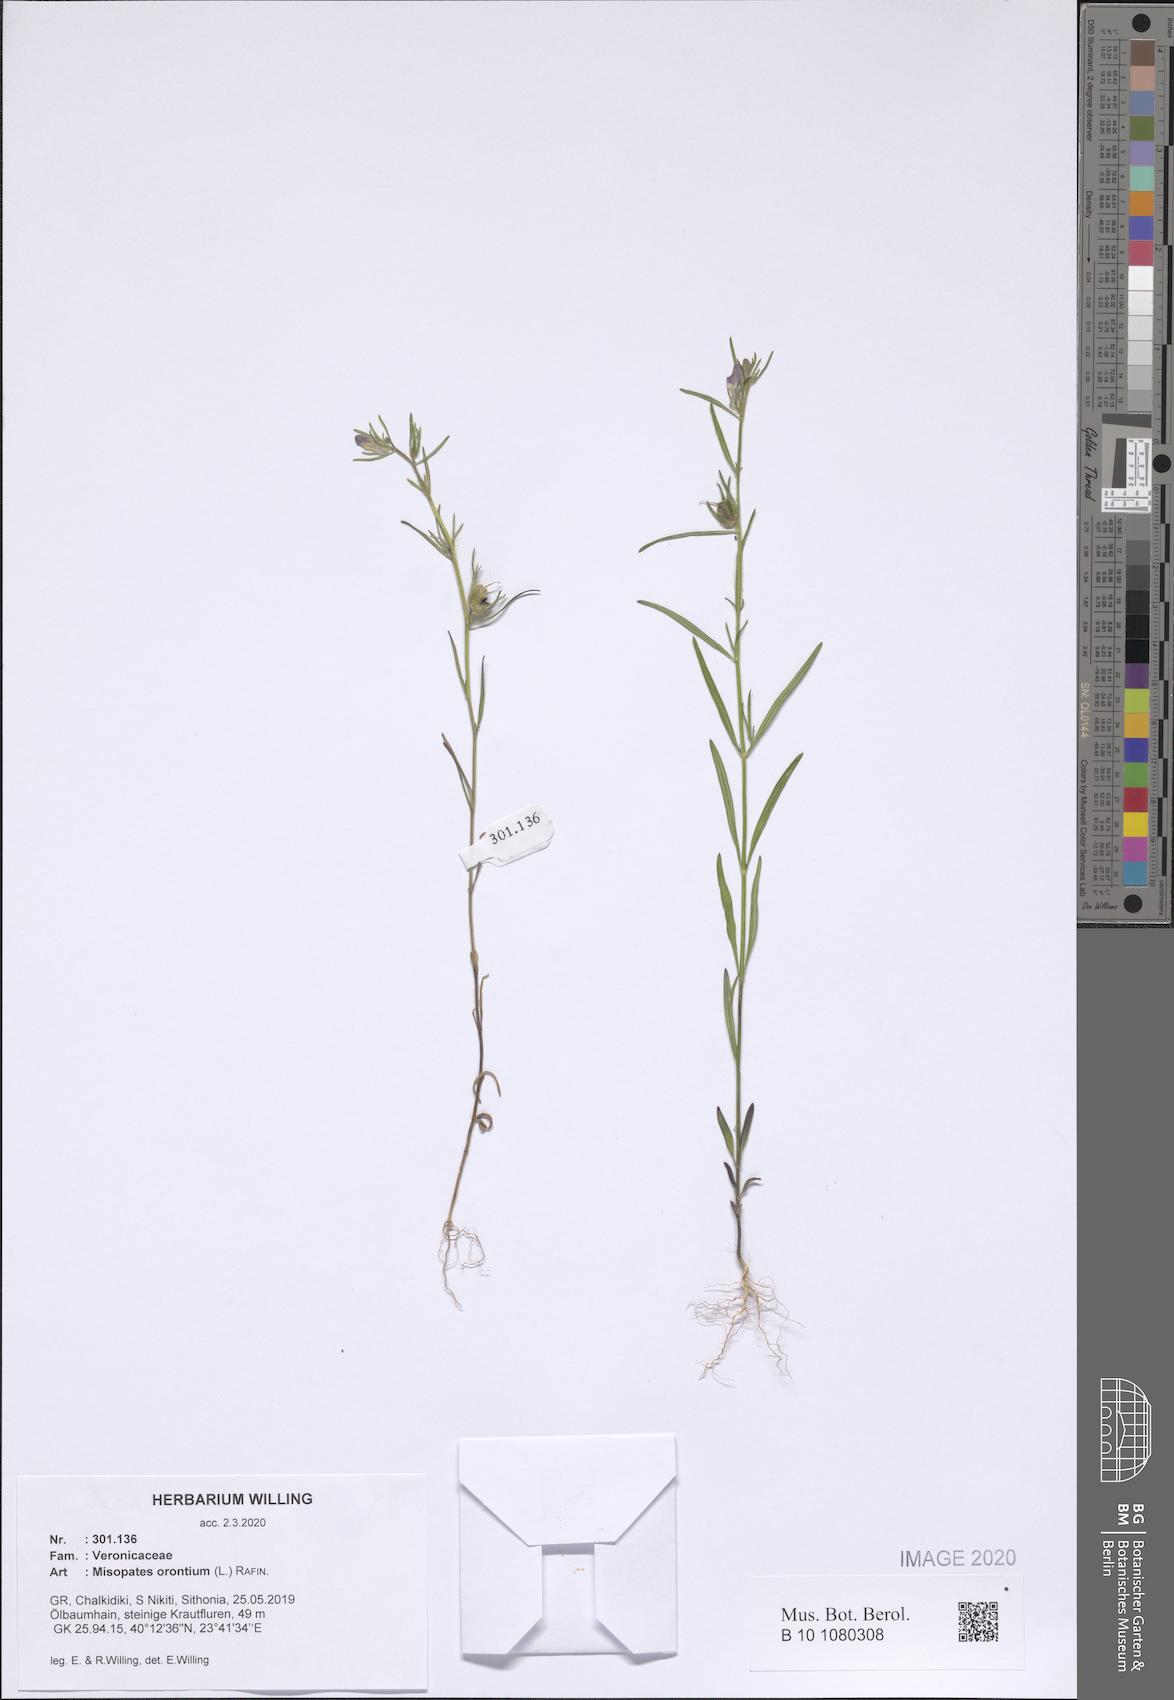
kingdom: Plantae
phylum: Tracheophyta
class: Magnoliopsida
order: Lamiales
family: Plantaginaceae
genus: Misopates
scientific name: Misopates orontium
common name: Weasel's-snout
